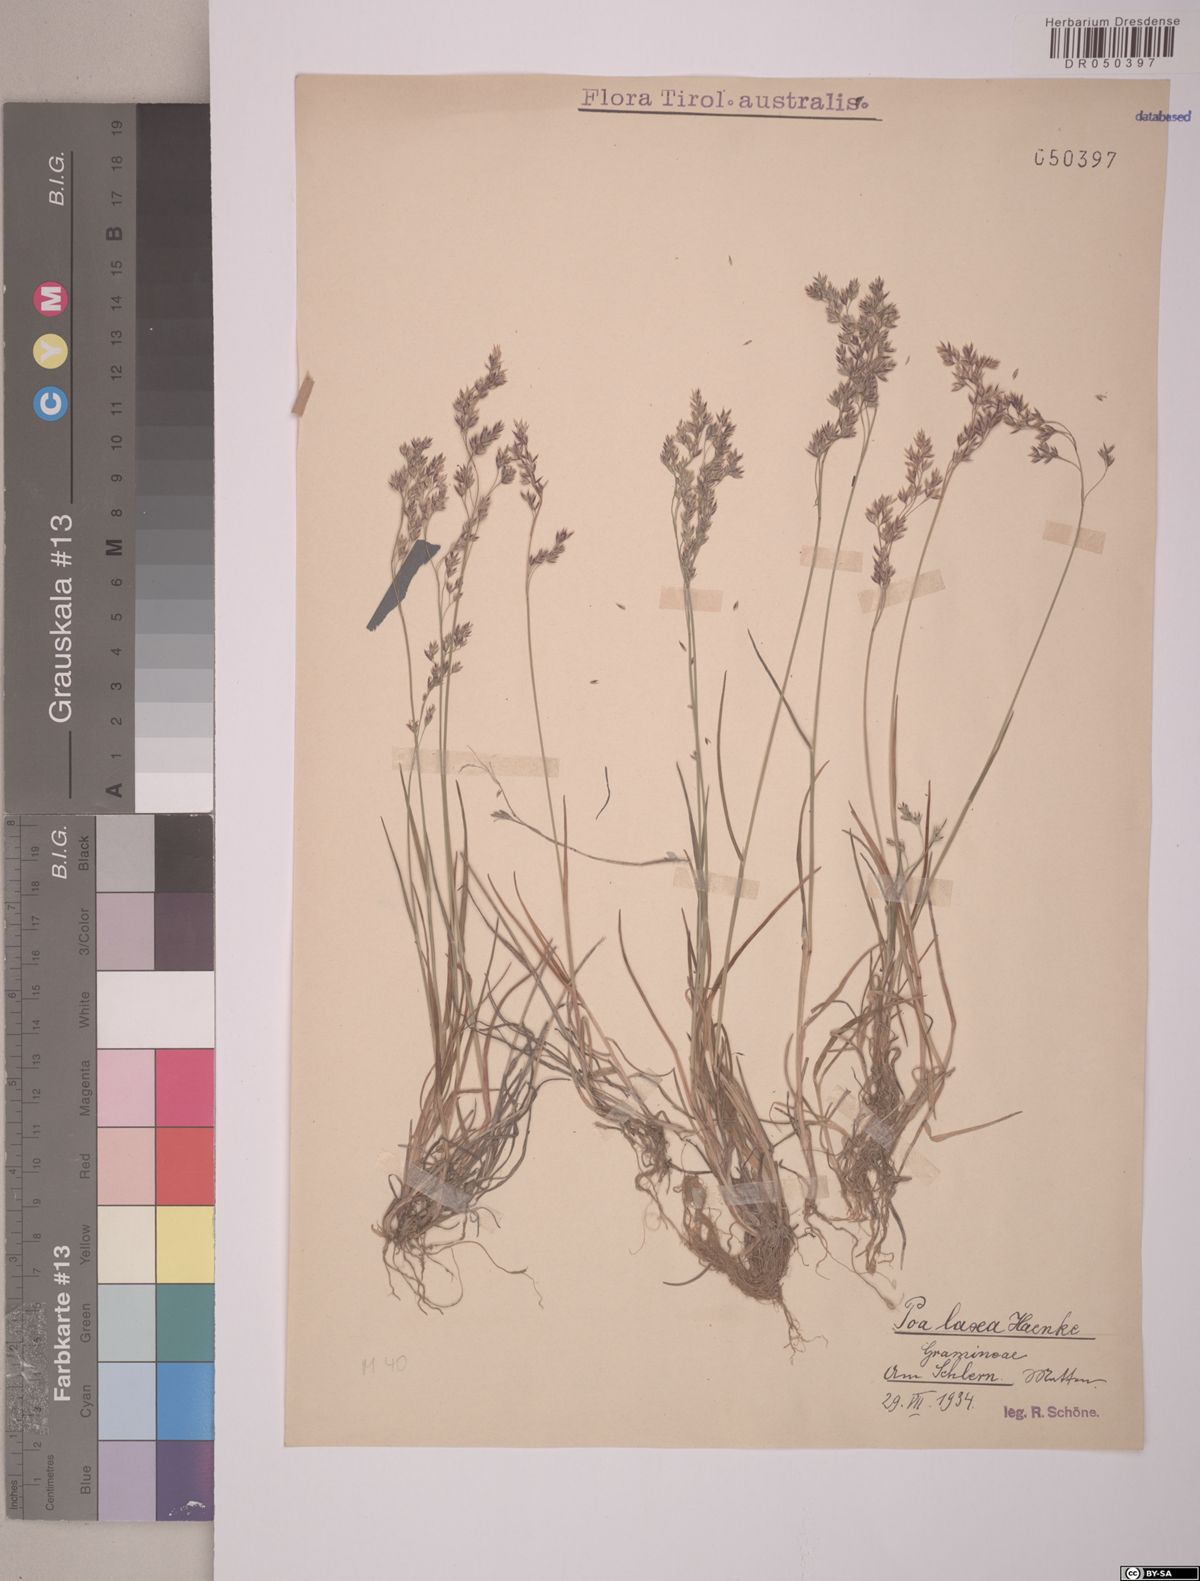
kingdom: Plantae
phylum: Tracheophyta
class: Liliopsida
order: Poales
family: Poaceae
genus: Poa
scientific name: Poa laxa
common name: Lax bluegrass
